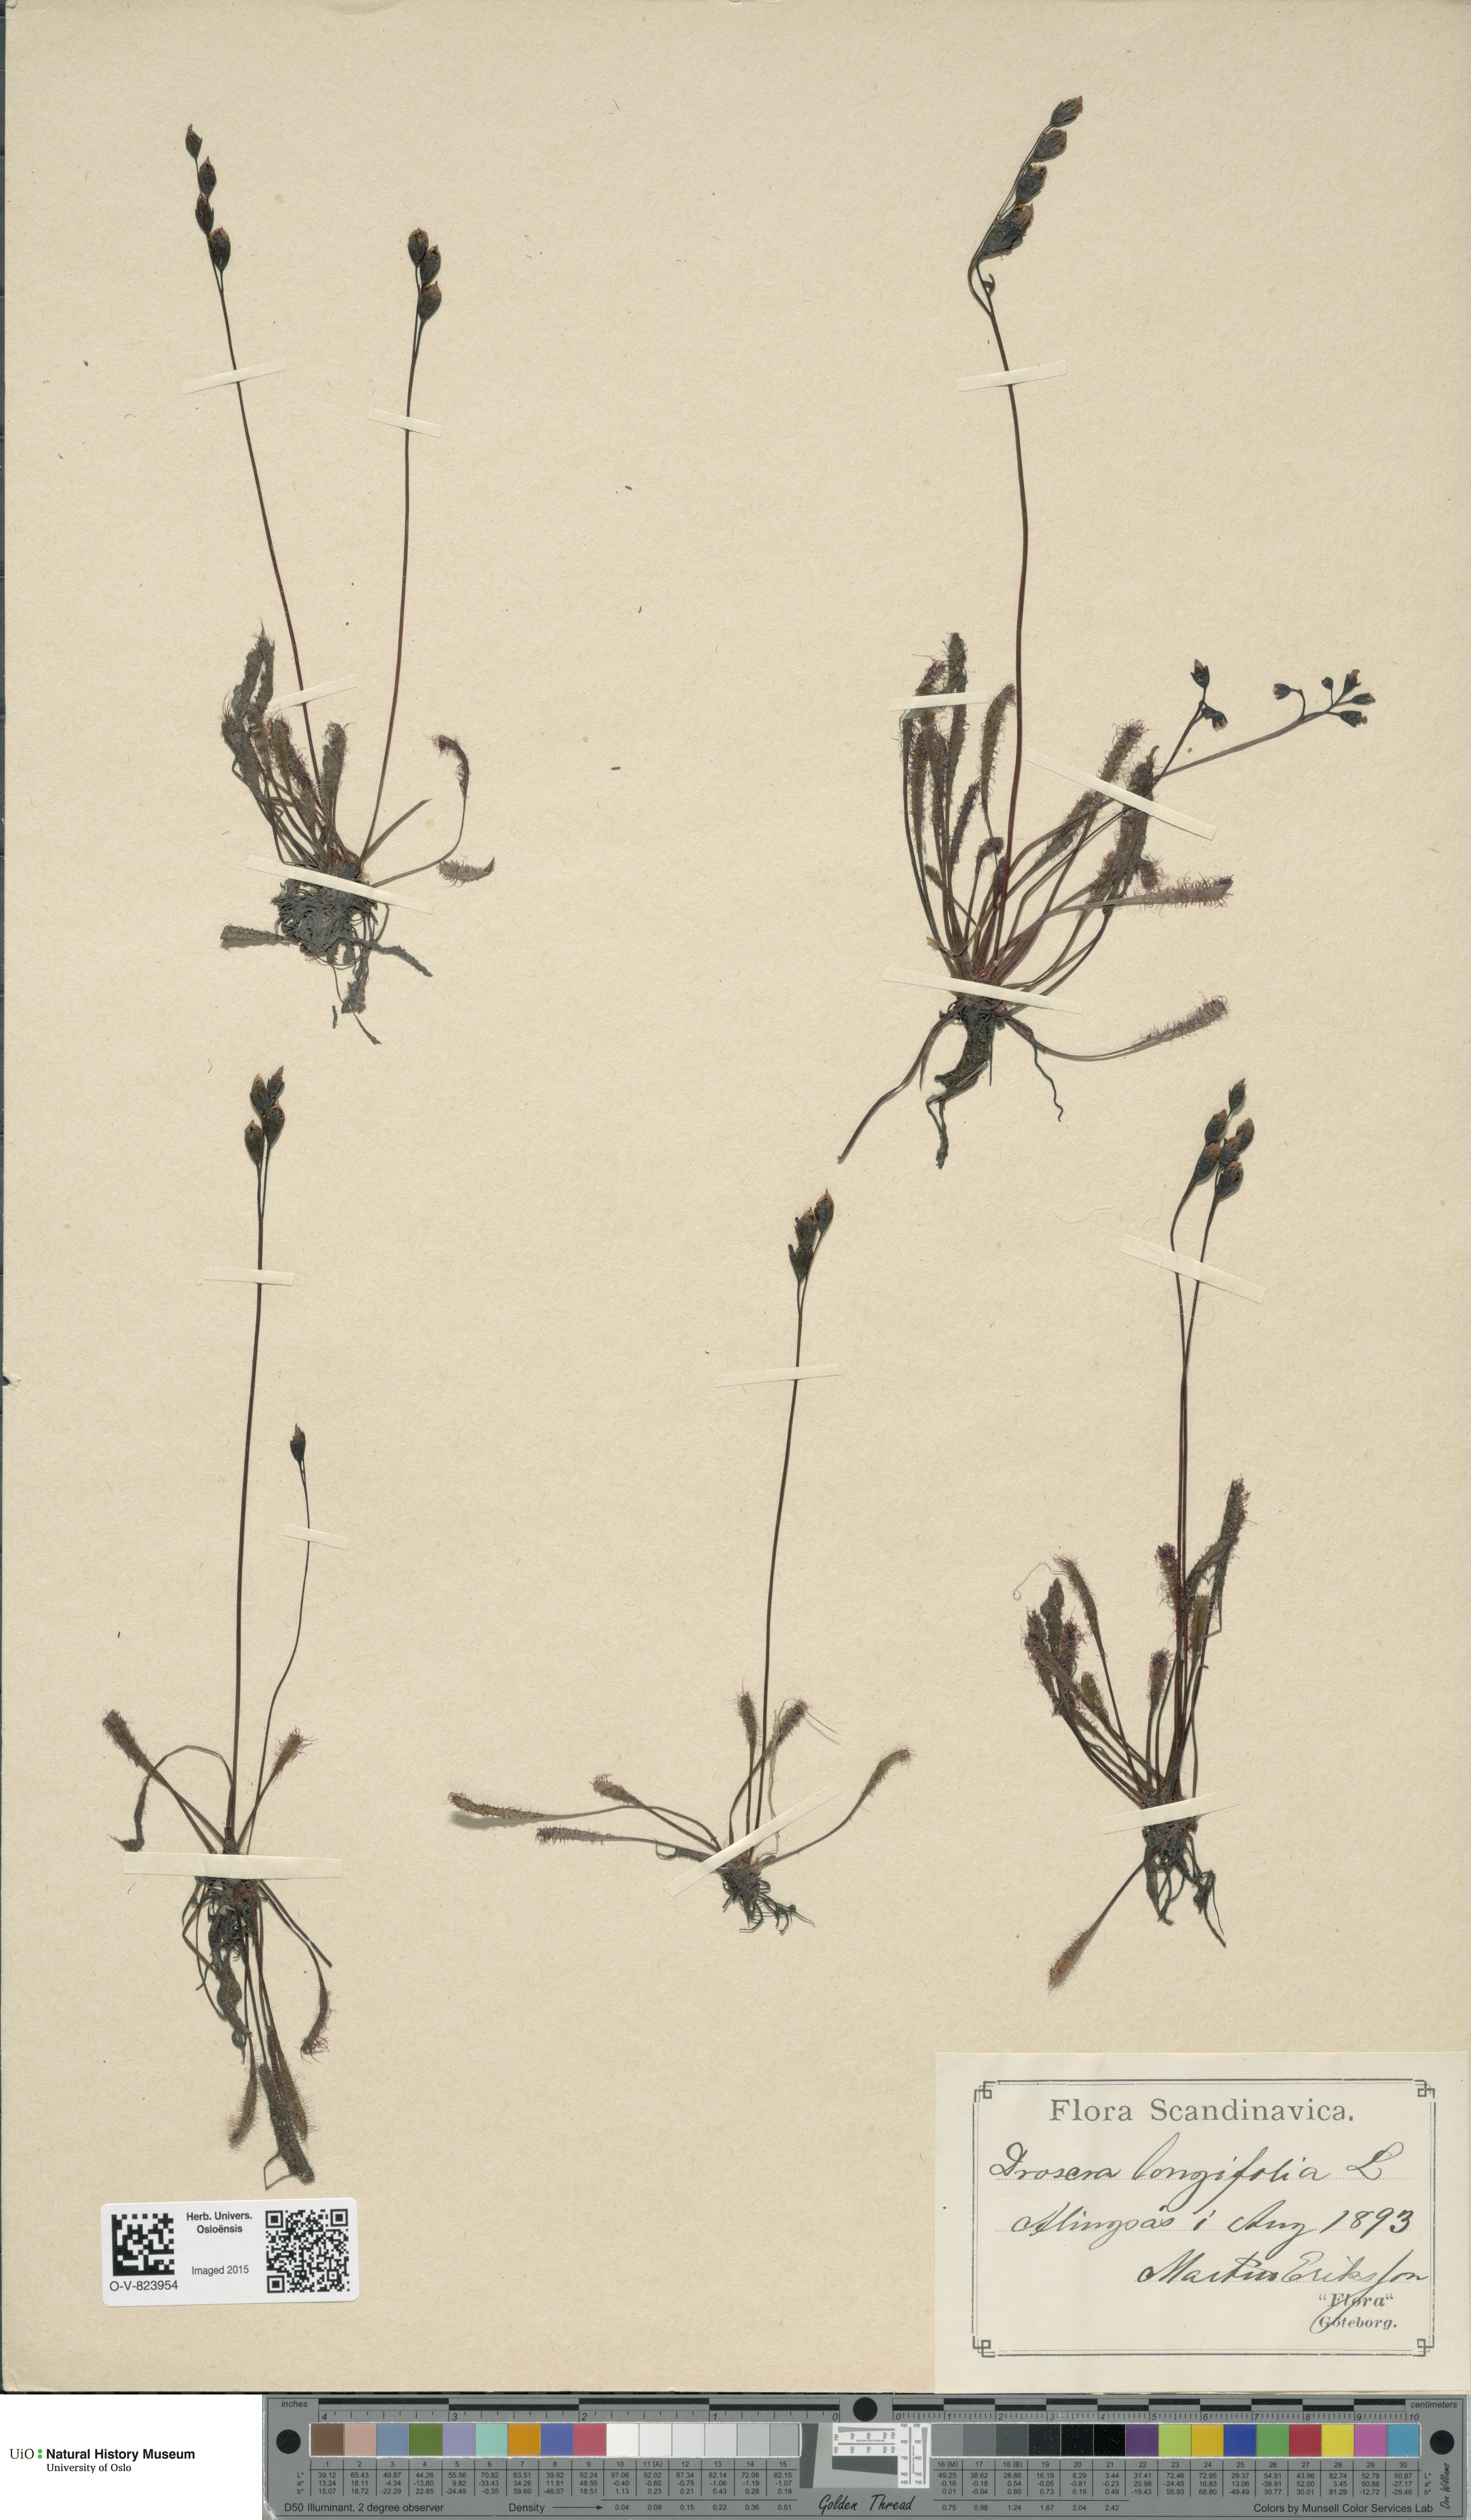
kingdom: Plantae
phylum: Tracheophyta
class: Magnoliopsida
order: Caryophyllales
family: Droseraceae
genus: Drosera
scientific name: Drosera anglica
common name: Great sundew
